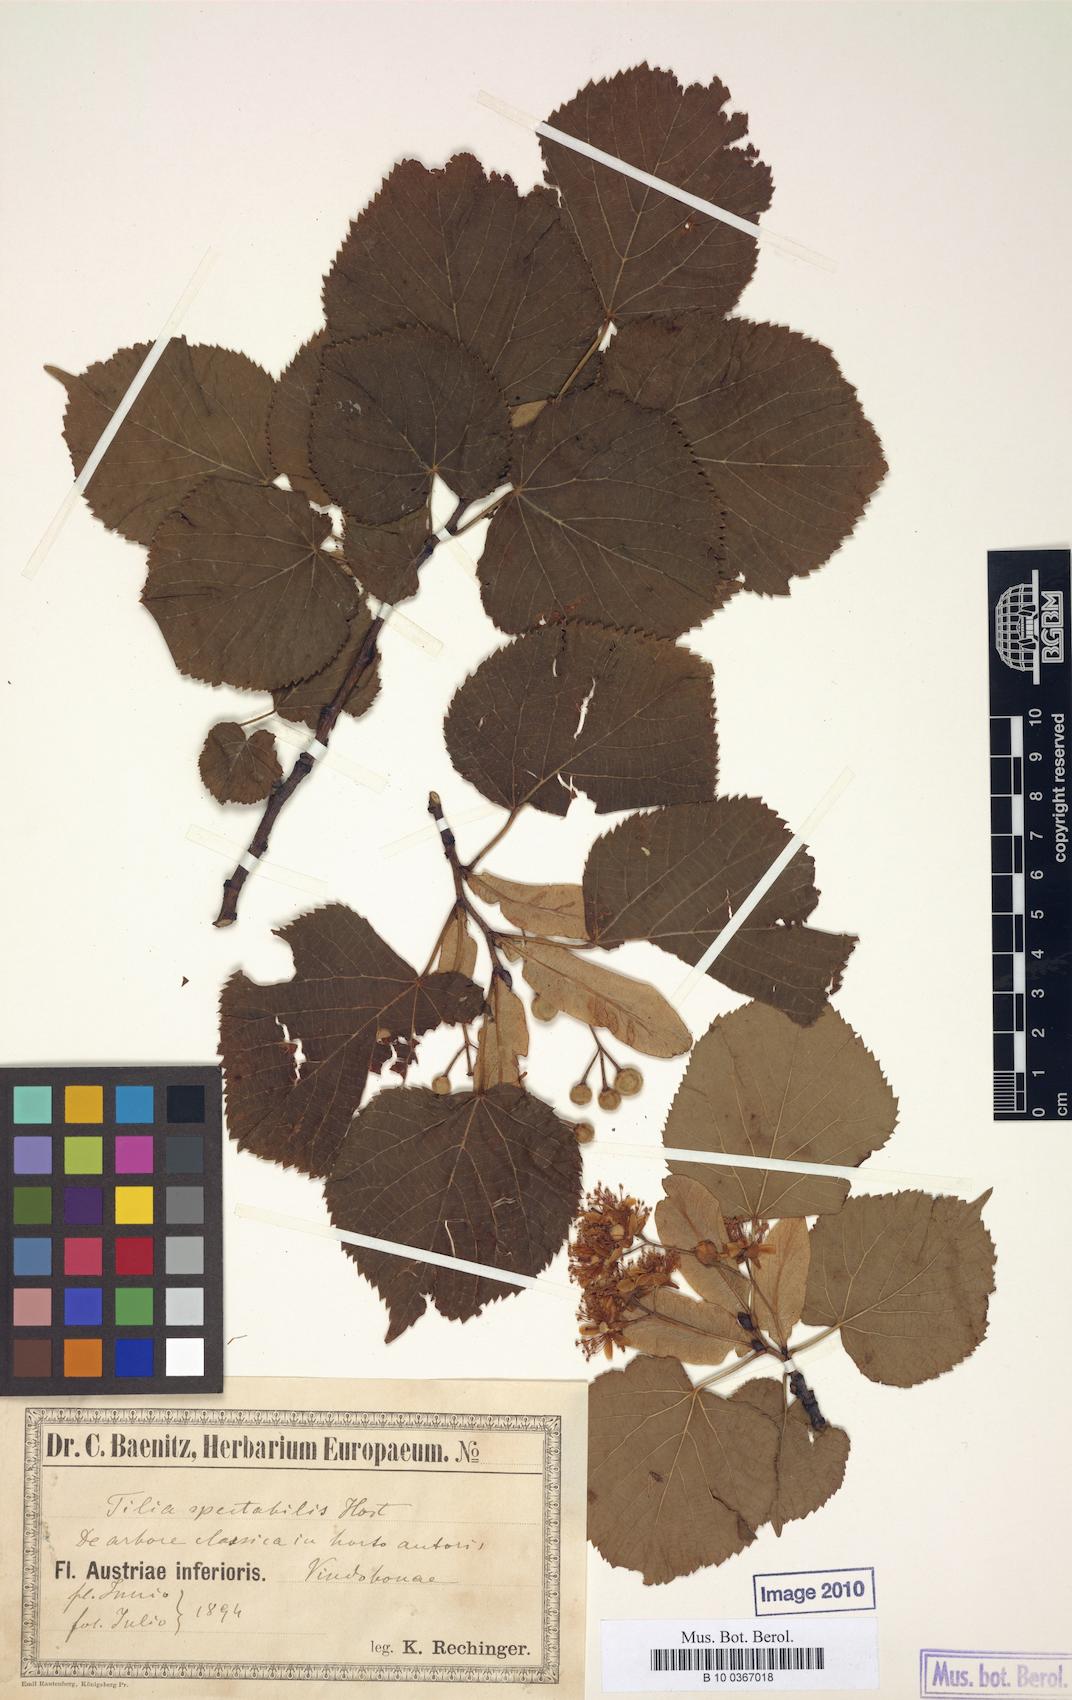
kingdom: Plantae
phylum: Tracheophyta
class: Magnoliopsida
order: Malvales
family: Malvaceae
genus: Tilia
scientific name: Tilia platyphyllos
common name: Large-leaved lime
